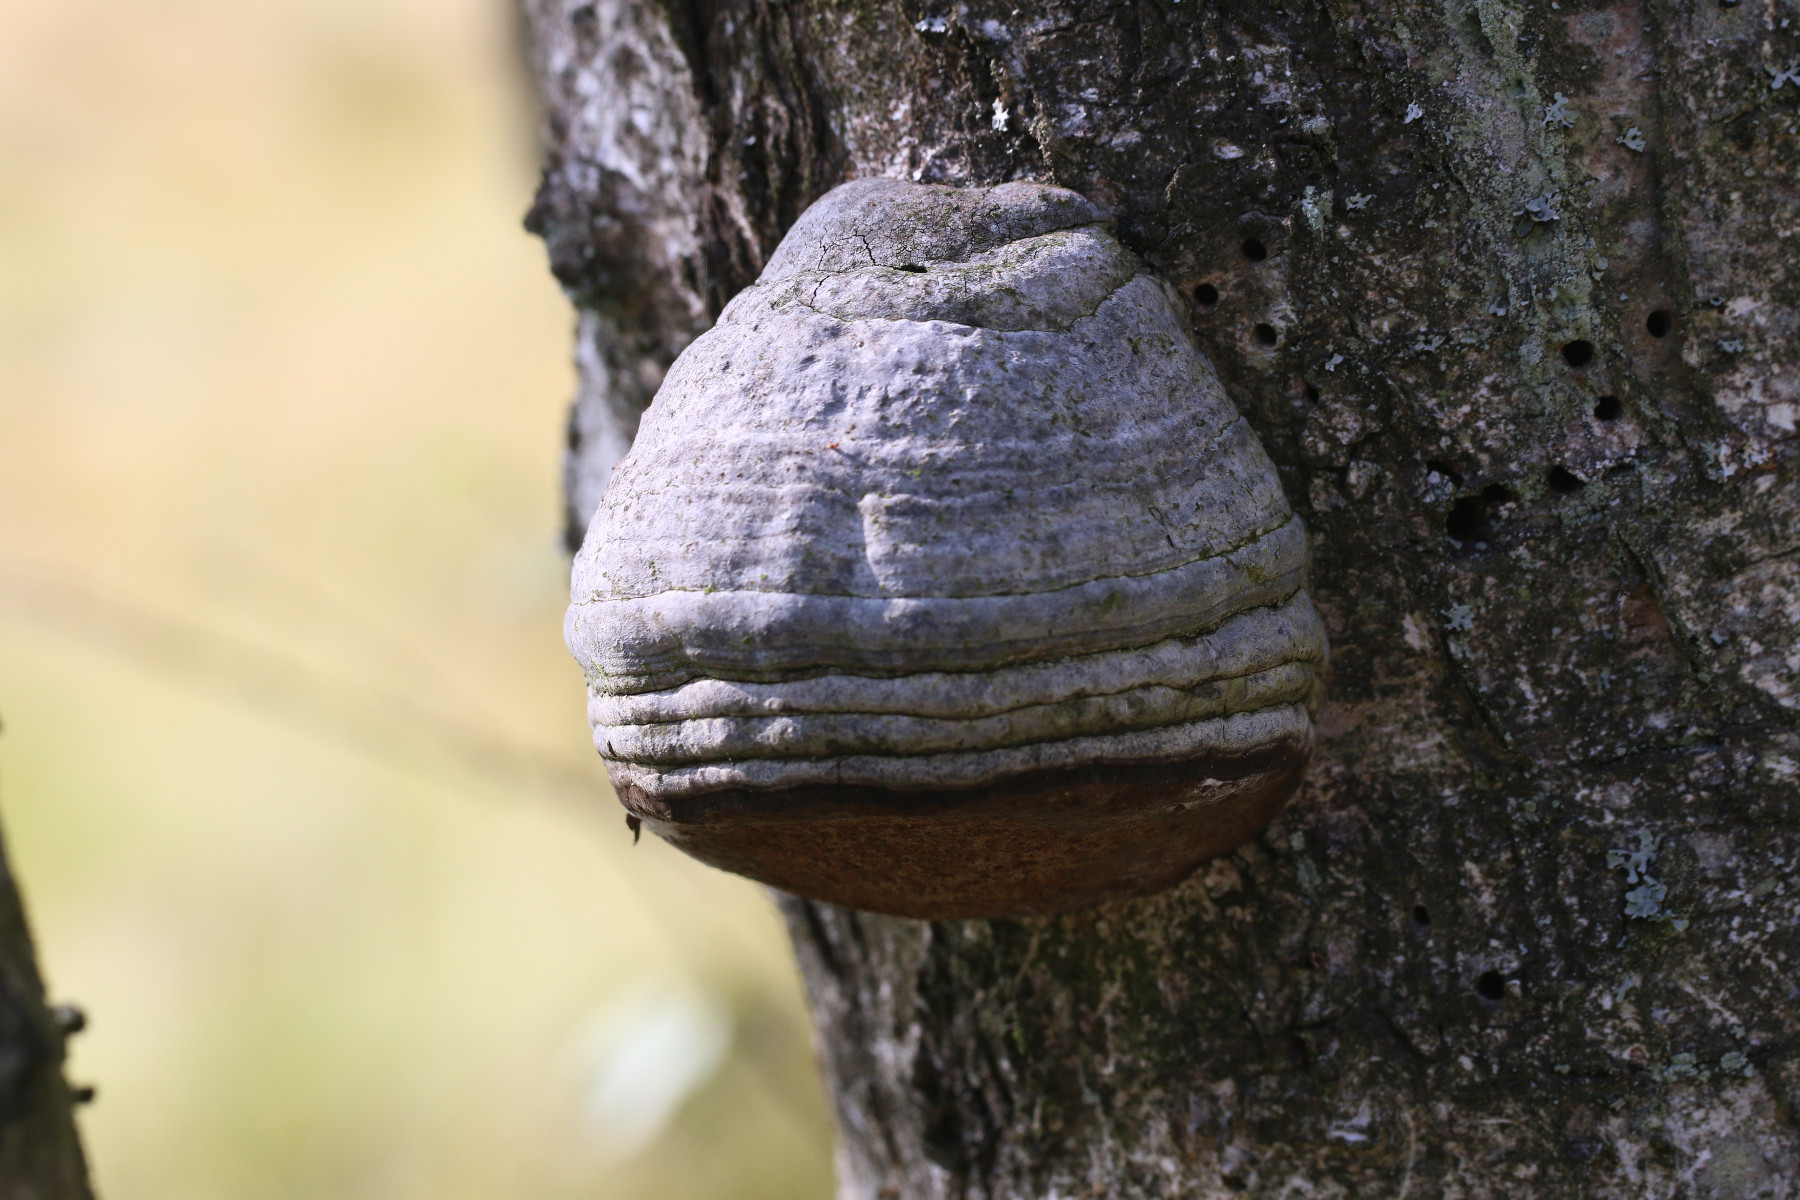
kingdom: Fungi
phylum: Basidiomycota
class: Agaricomycetes
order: Polyporales
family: Polyporaceae
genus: Fomes
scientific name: Fomes fomentarius
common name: tøndersvamp
